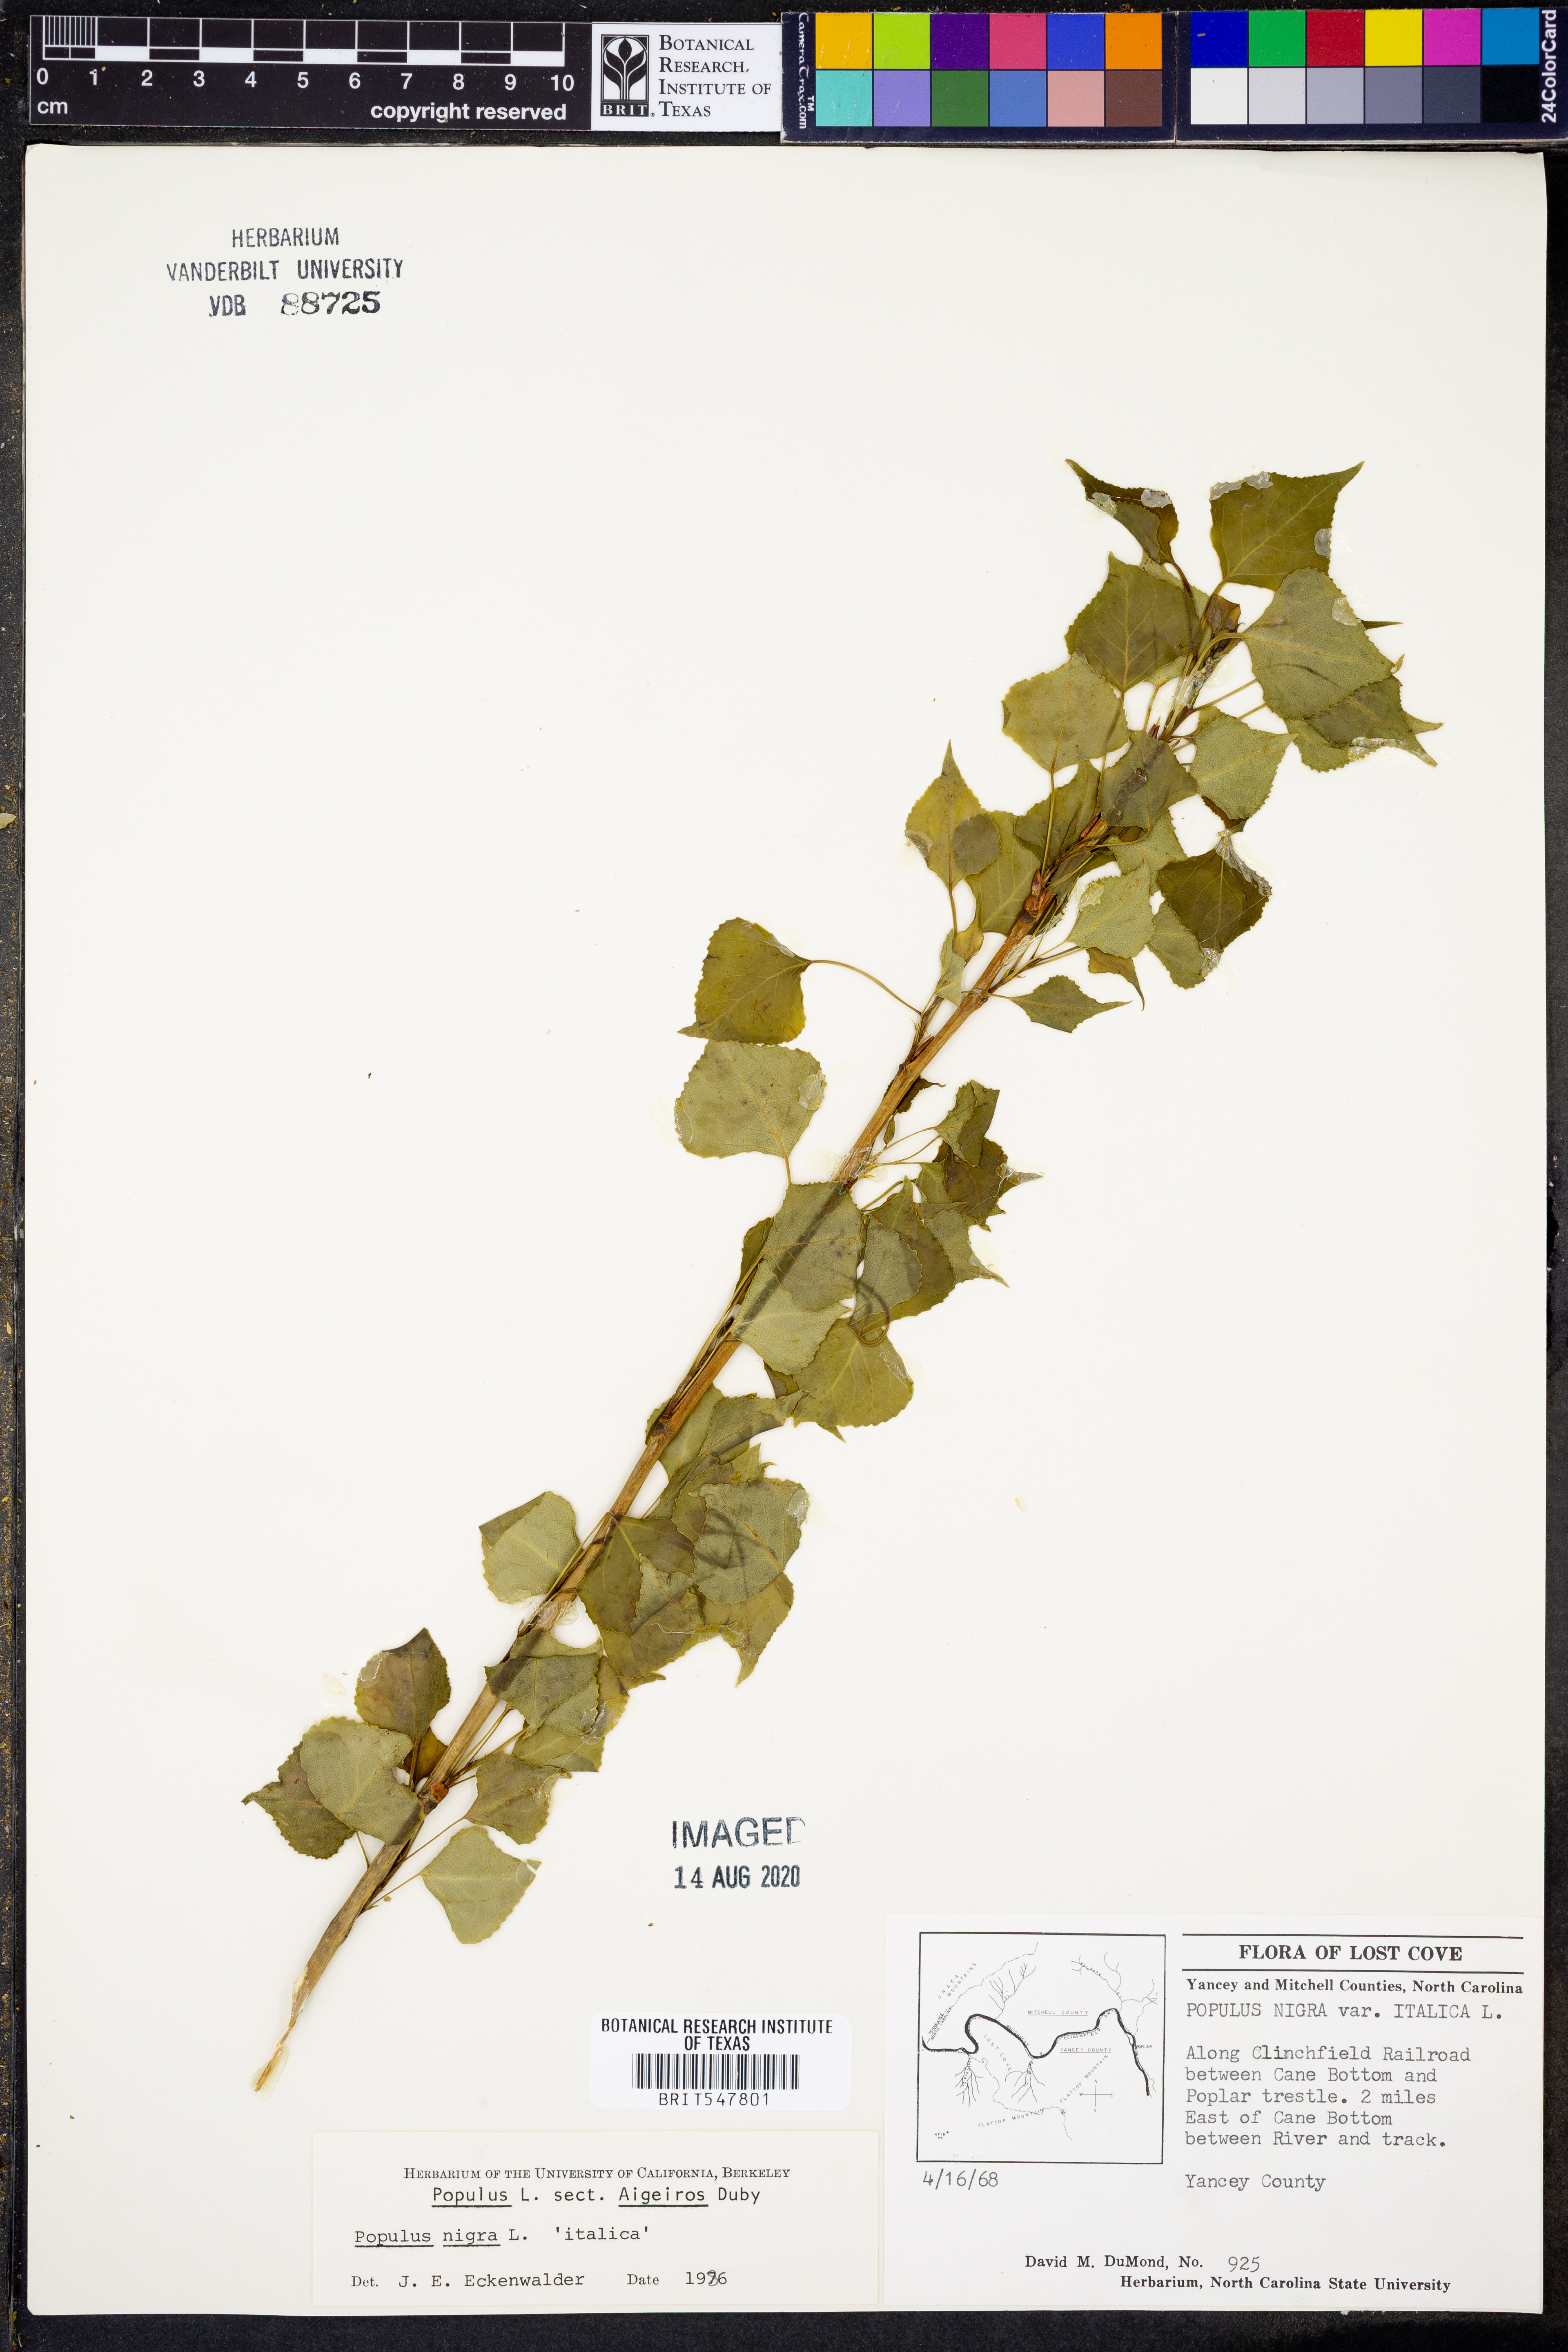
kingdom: Plantae
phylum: Tracheophyta
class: Magnoliopsida
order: Malpighiales
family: Salicaceae
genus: Populus
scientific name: Populus nigra
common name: Black poplar
